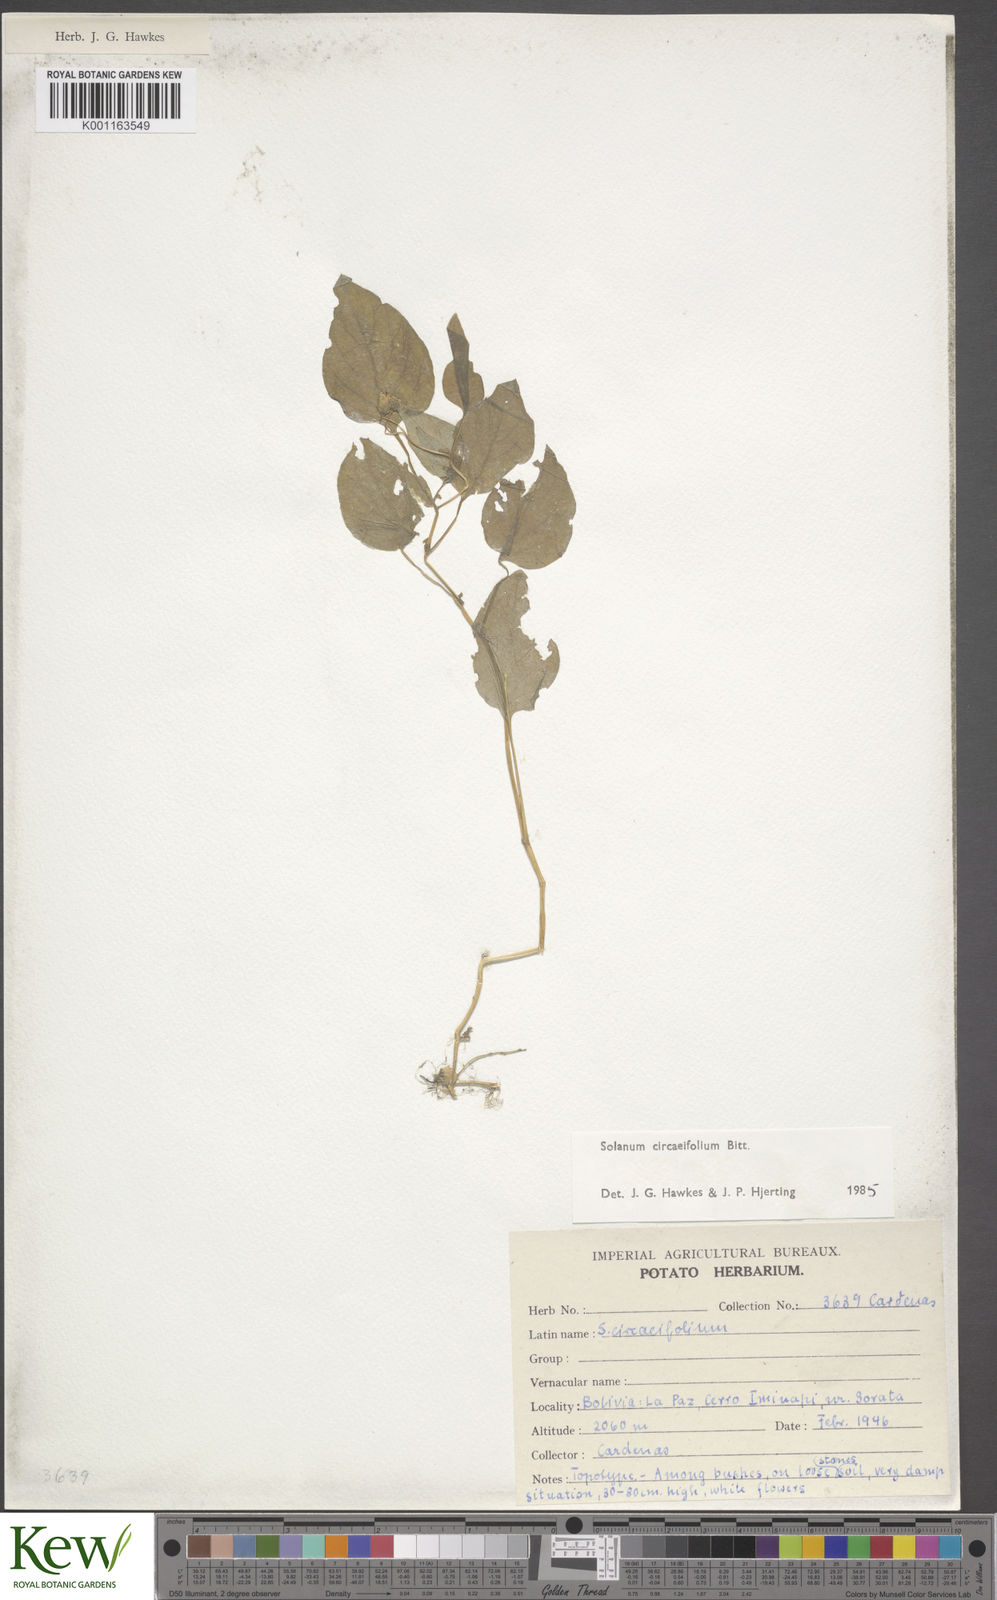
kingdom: Plantae
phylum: Tracheophyta
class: Magnoliopsida
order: Solanales
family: Solanaceae
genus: Solanum
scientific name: Solanum stipuloideum
